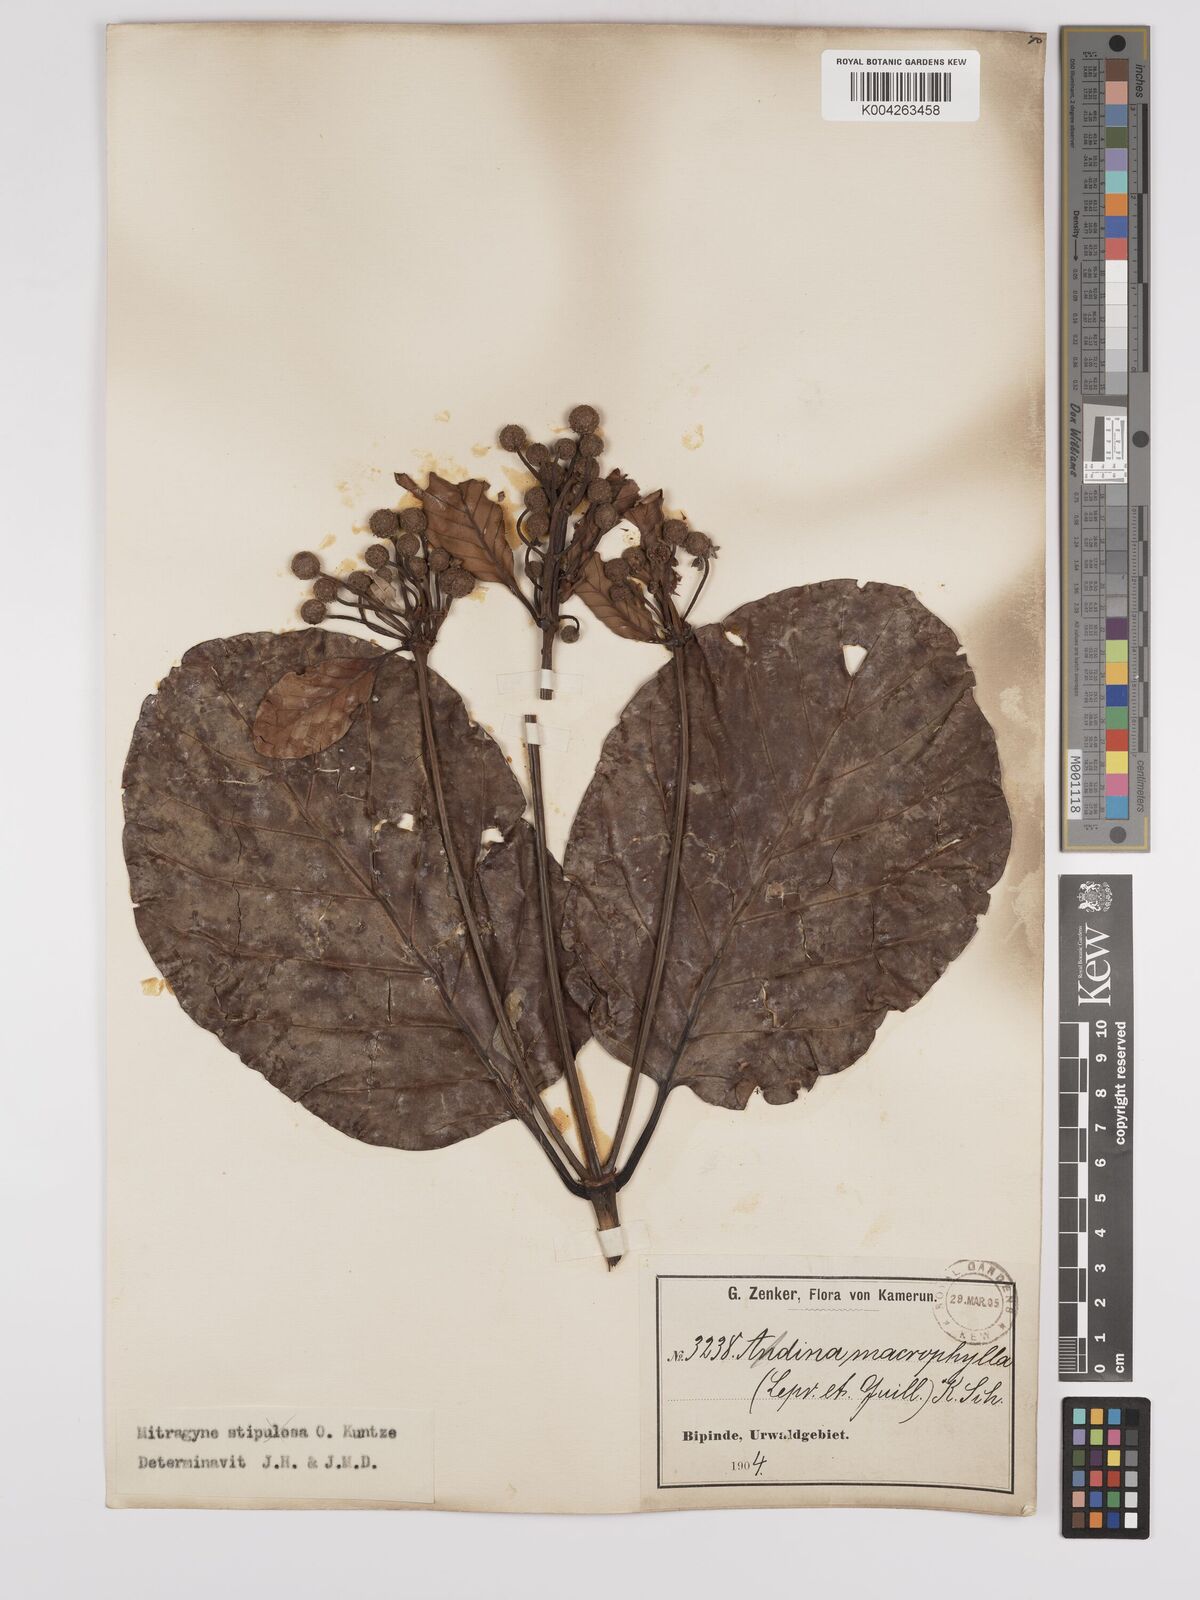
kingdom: Plantae
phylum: Tracheophyta
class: Magnoliopsida
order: Gentianales
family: Rubiaceae
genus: Mitragyna
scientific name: Mitragyna stipulosa
